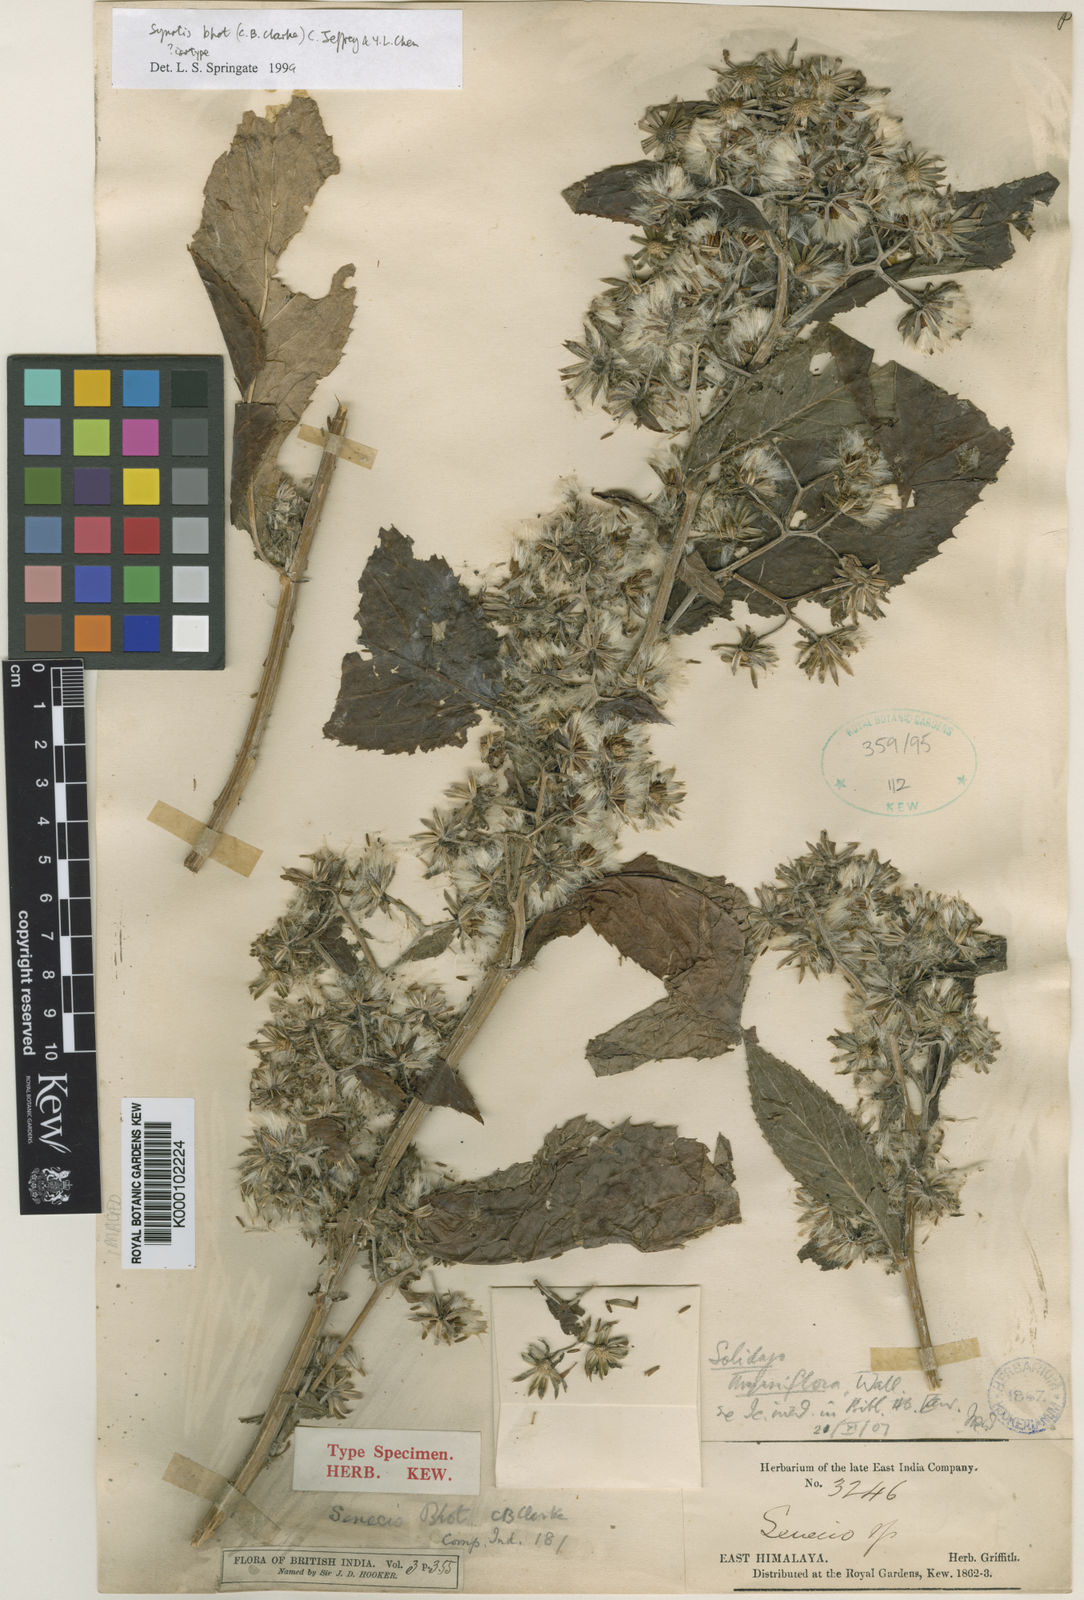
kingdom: Plantae
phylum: Tracheophyta
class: Magnoliopsida
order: Asterales
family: Asteraceae
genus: Synotis
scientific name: Synotis bhot
